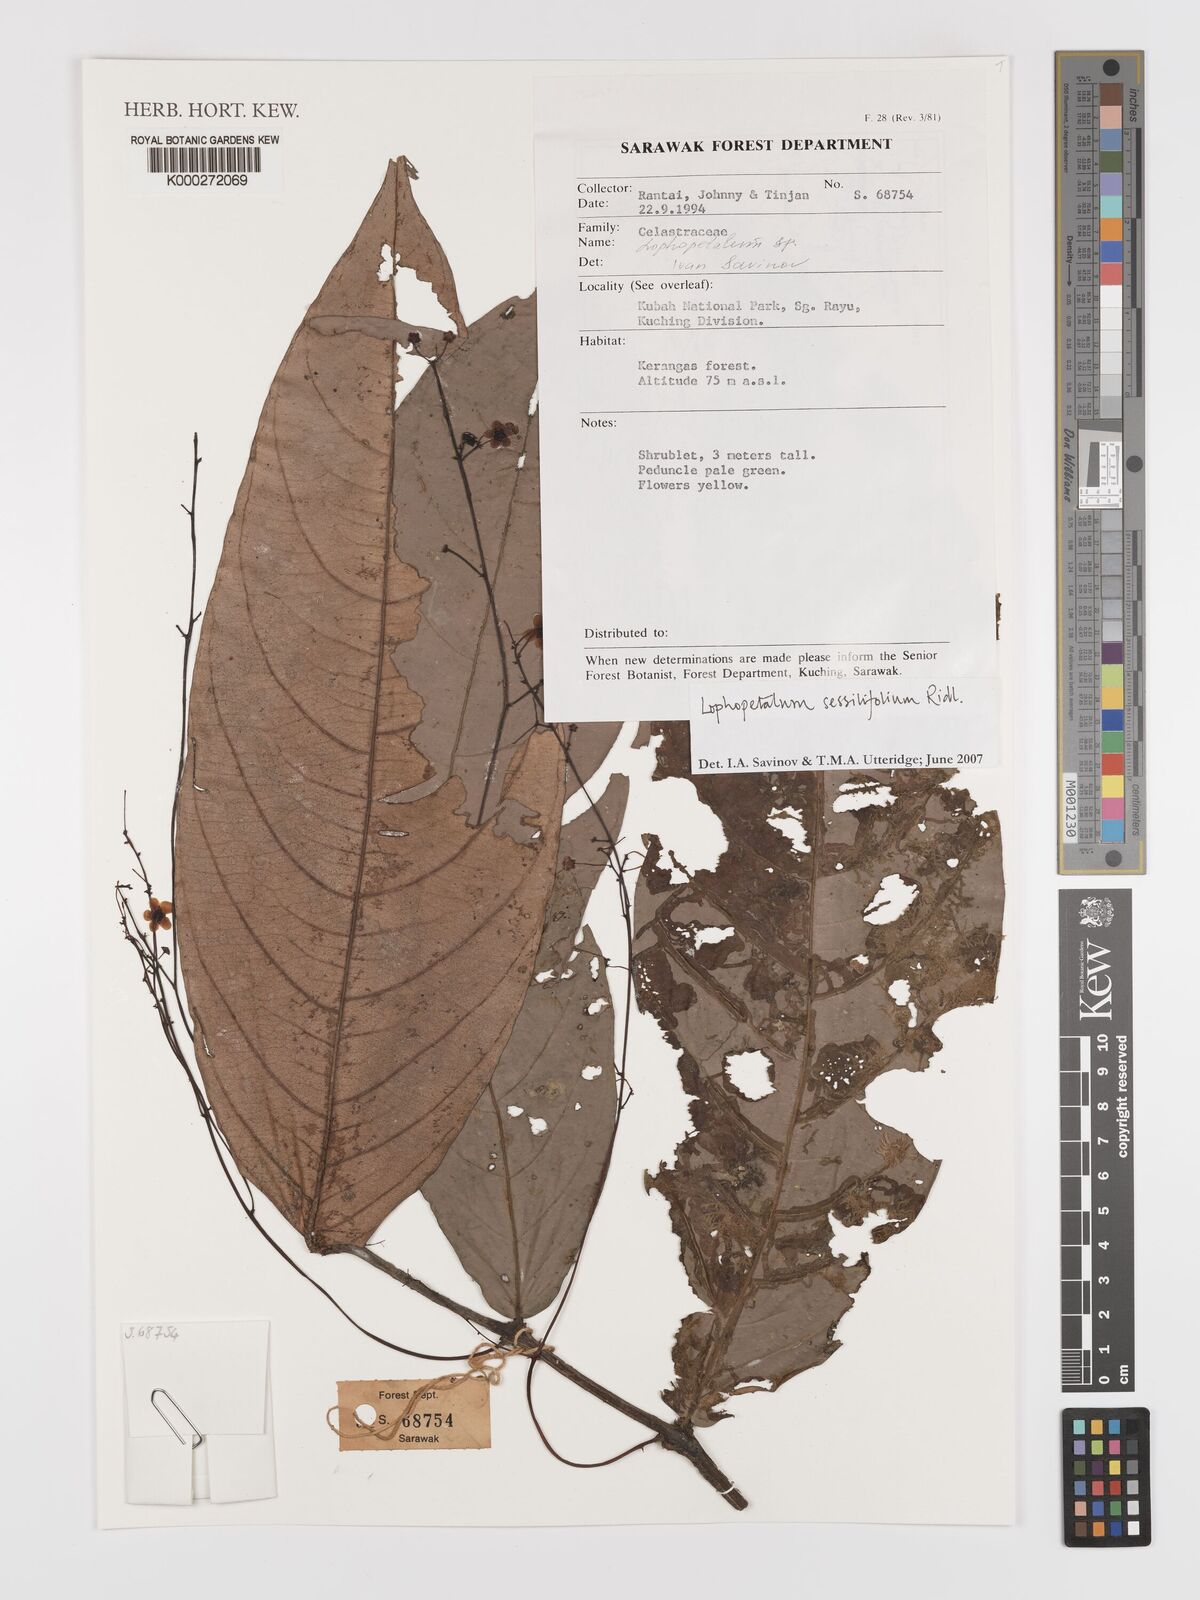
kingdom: Plantae
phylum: Tracheophyta
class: Magnoliopsida
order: Celastrales
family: Celastraceae
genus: Lophopetalum
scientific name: Lophopetalum sessilifolium
